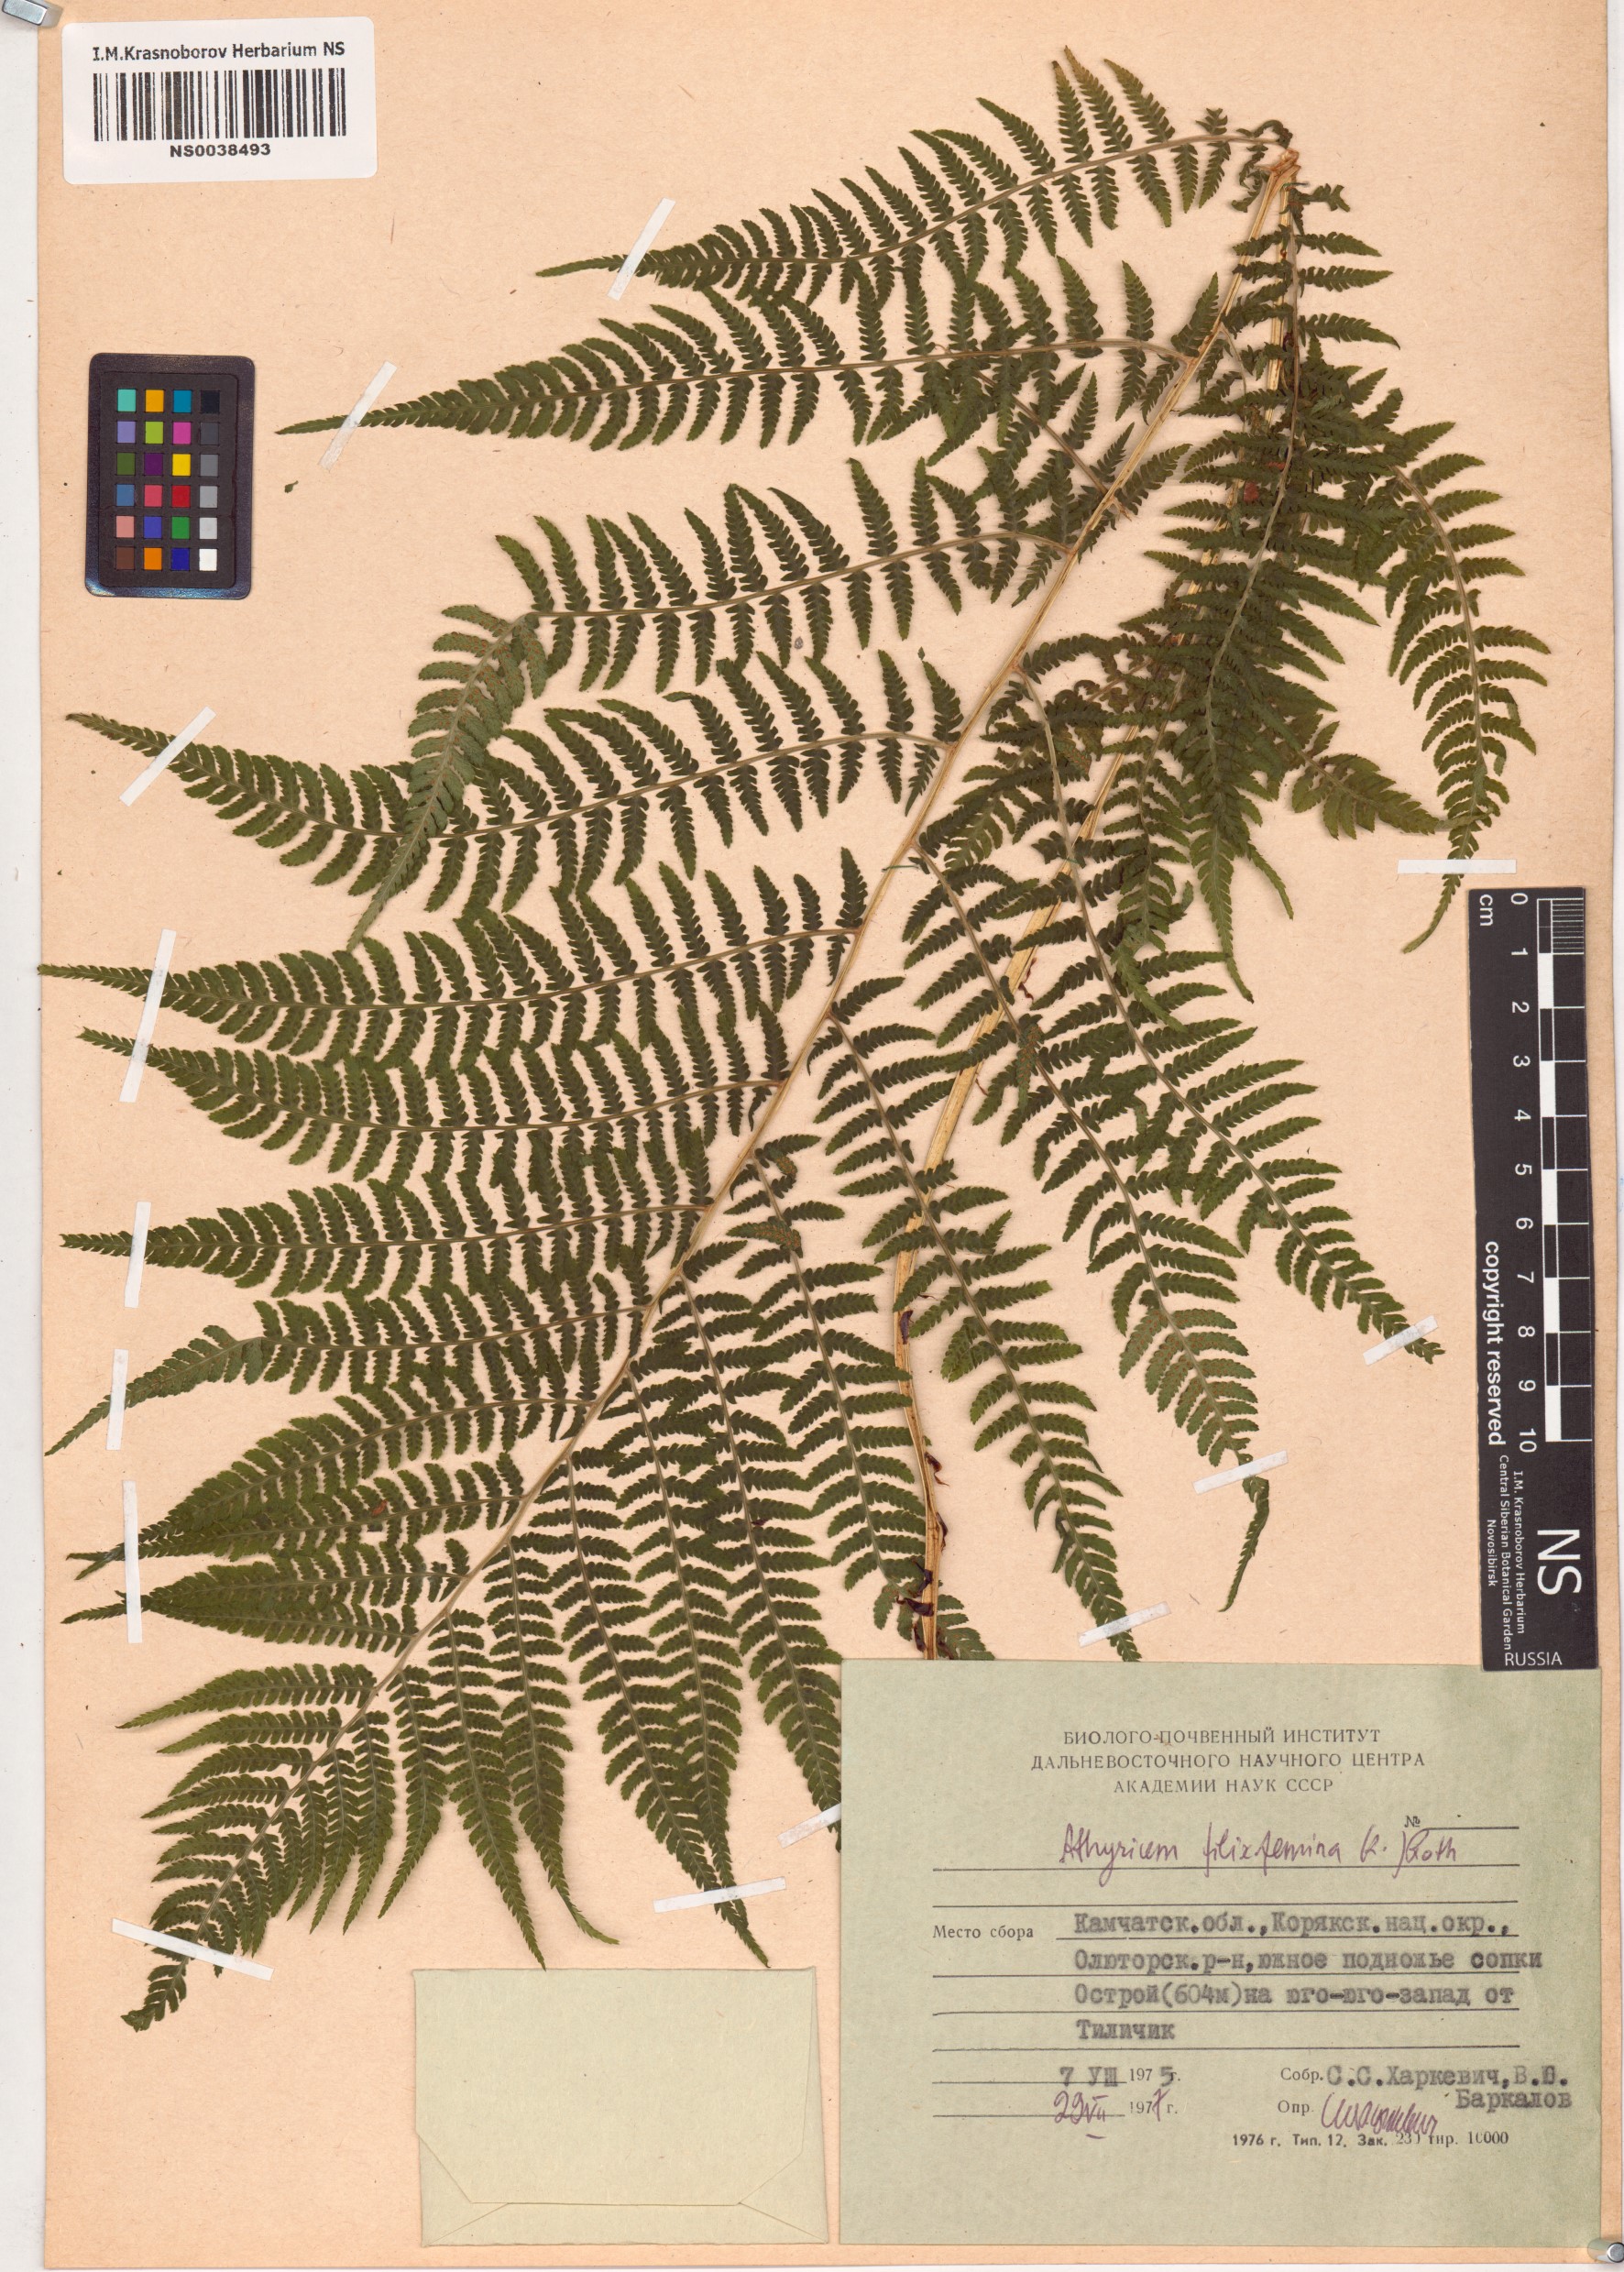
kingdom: Plantae
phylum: Tracheophyta
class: Polypodiopsida
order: Polypodiales
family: Athyriaceae
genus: Athyrium
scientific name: Athyrium filix-femina
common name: Lady fern
